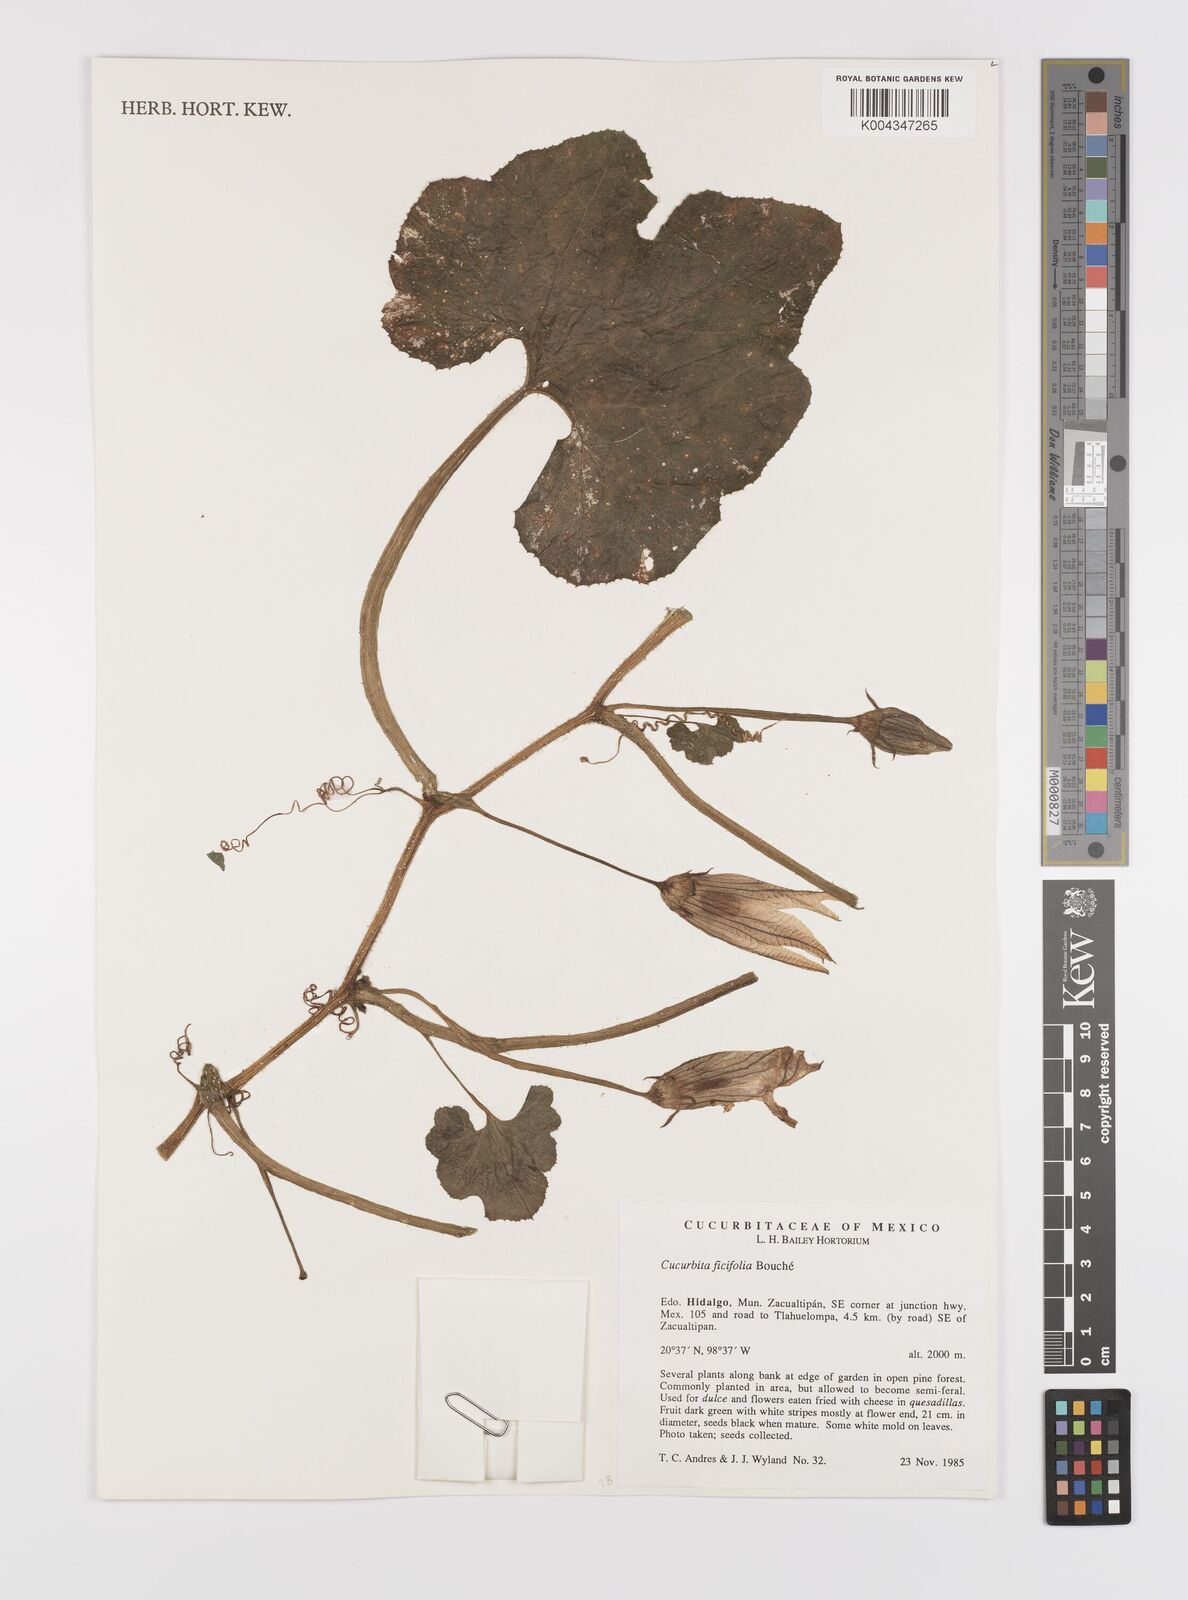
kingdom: Plantae
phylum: Tracheophyta
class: Magnoliopsida
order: Cucurbitales
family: Cucurbitaceae
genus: Cucurbita
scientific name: Cucurbita ficifolia
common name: Figleaf gourd
